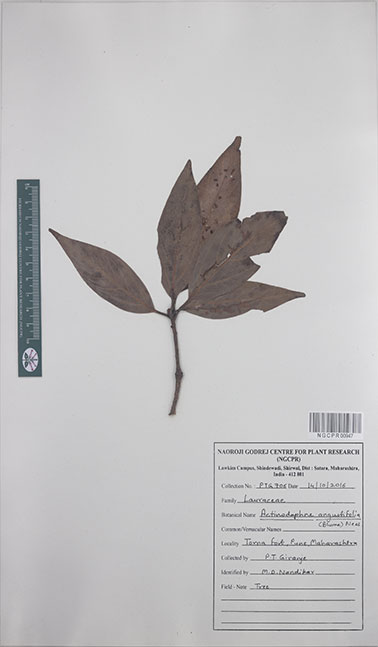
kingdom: Plantae
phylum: Tracheophyta
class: Magnoliopsida
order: Laurales
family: Lauraceae
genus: Actinodaphne
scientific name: Actinodaphne angustifolia
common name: Pisatree
